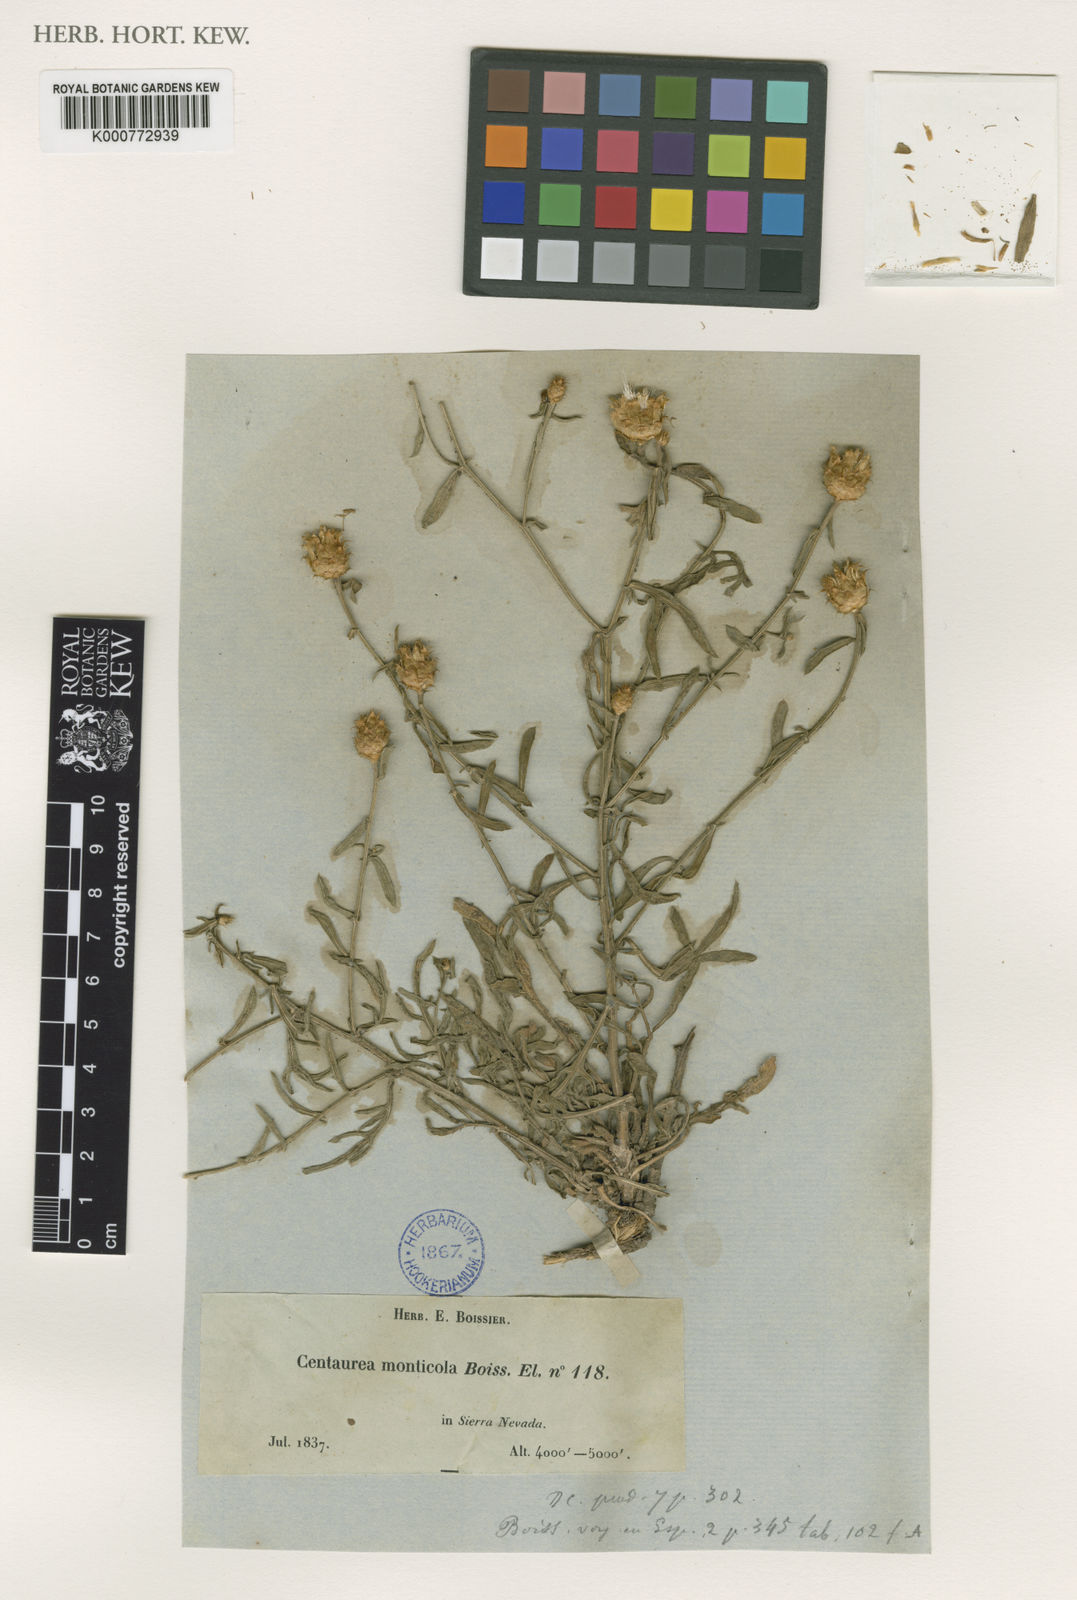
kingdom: Plantae
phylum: Tracheophyta
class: Magnoliopsida
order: Asterales
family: Asteraceae
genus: Centaurea
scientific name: Centaurea monticola
